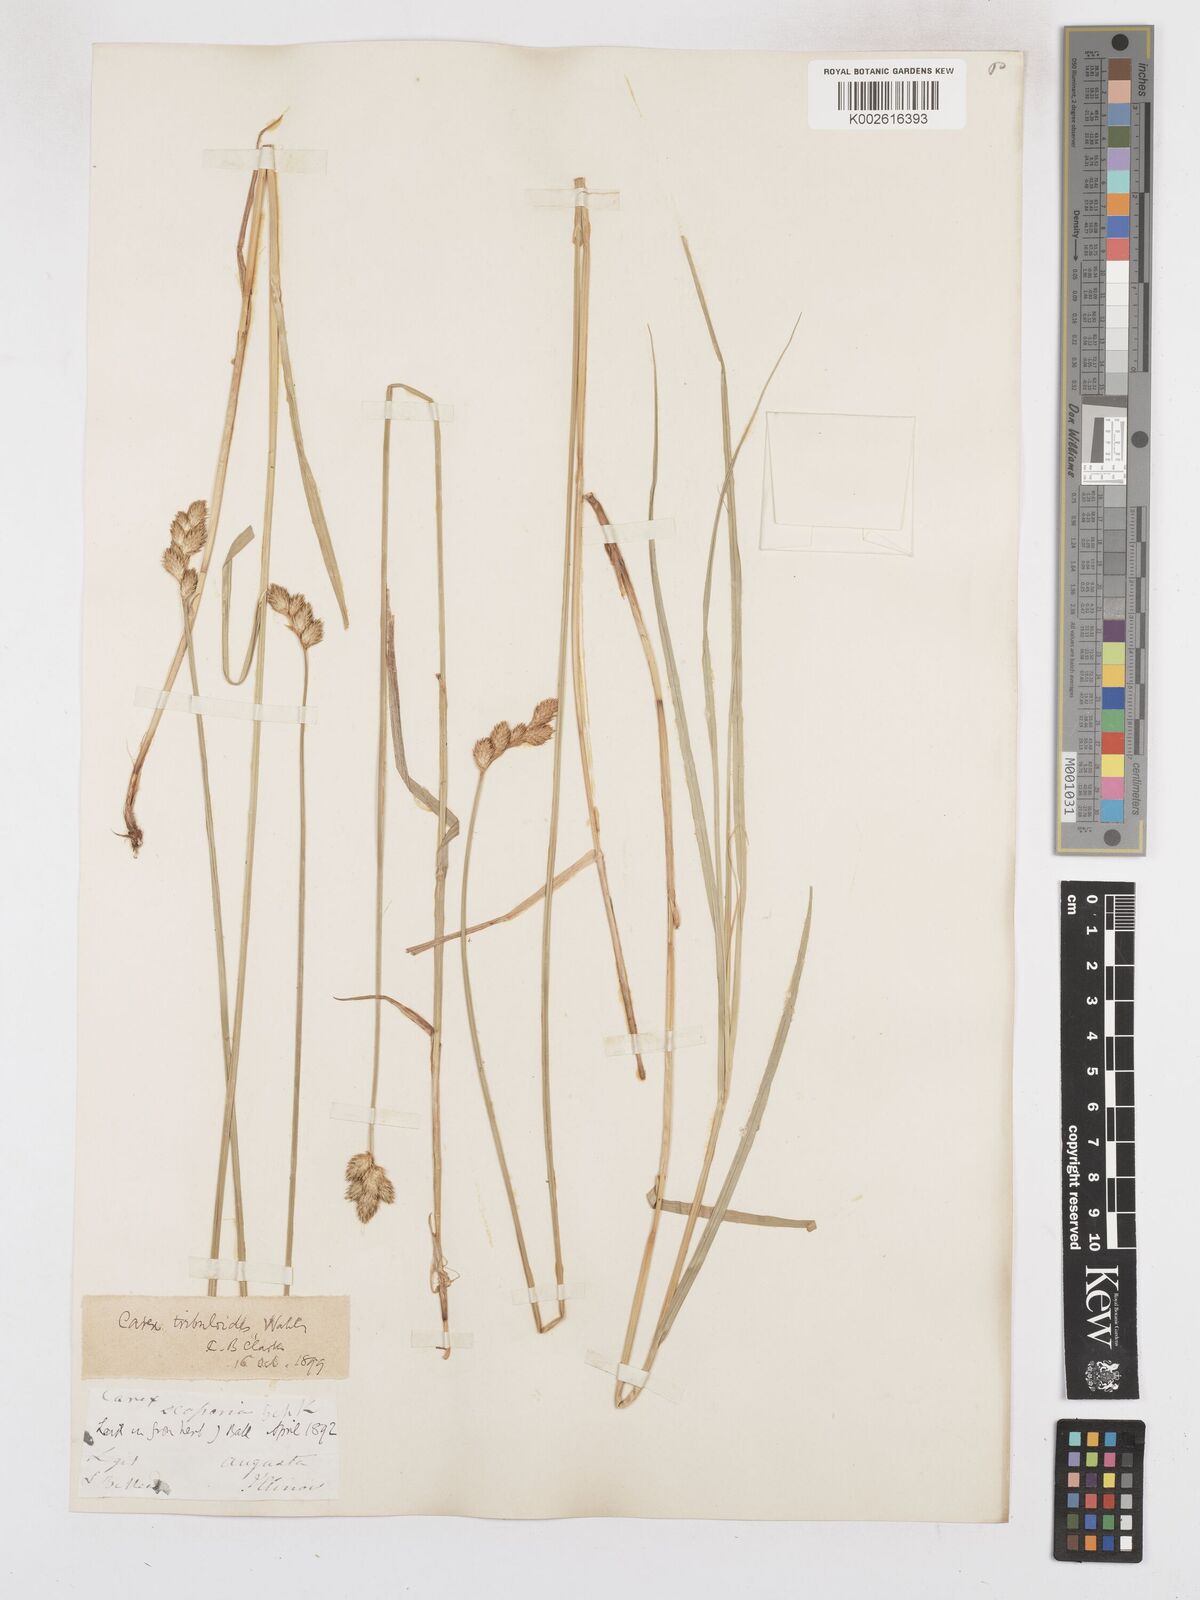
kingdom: Plantae
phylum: Tracheophyta
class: Liliopsida
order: Poales
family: Cyperaceae
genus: Carex
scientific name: Carex tribuloides
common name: Blunt broom sedge
